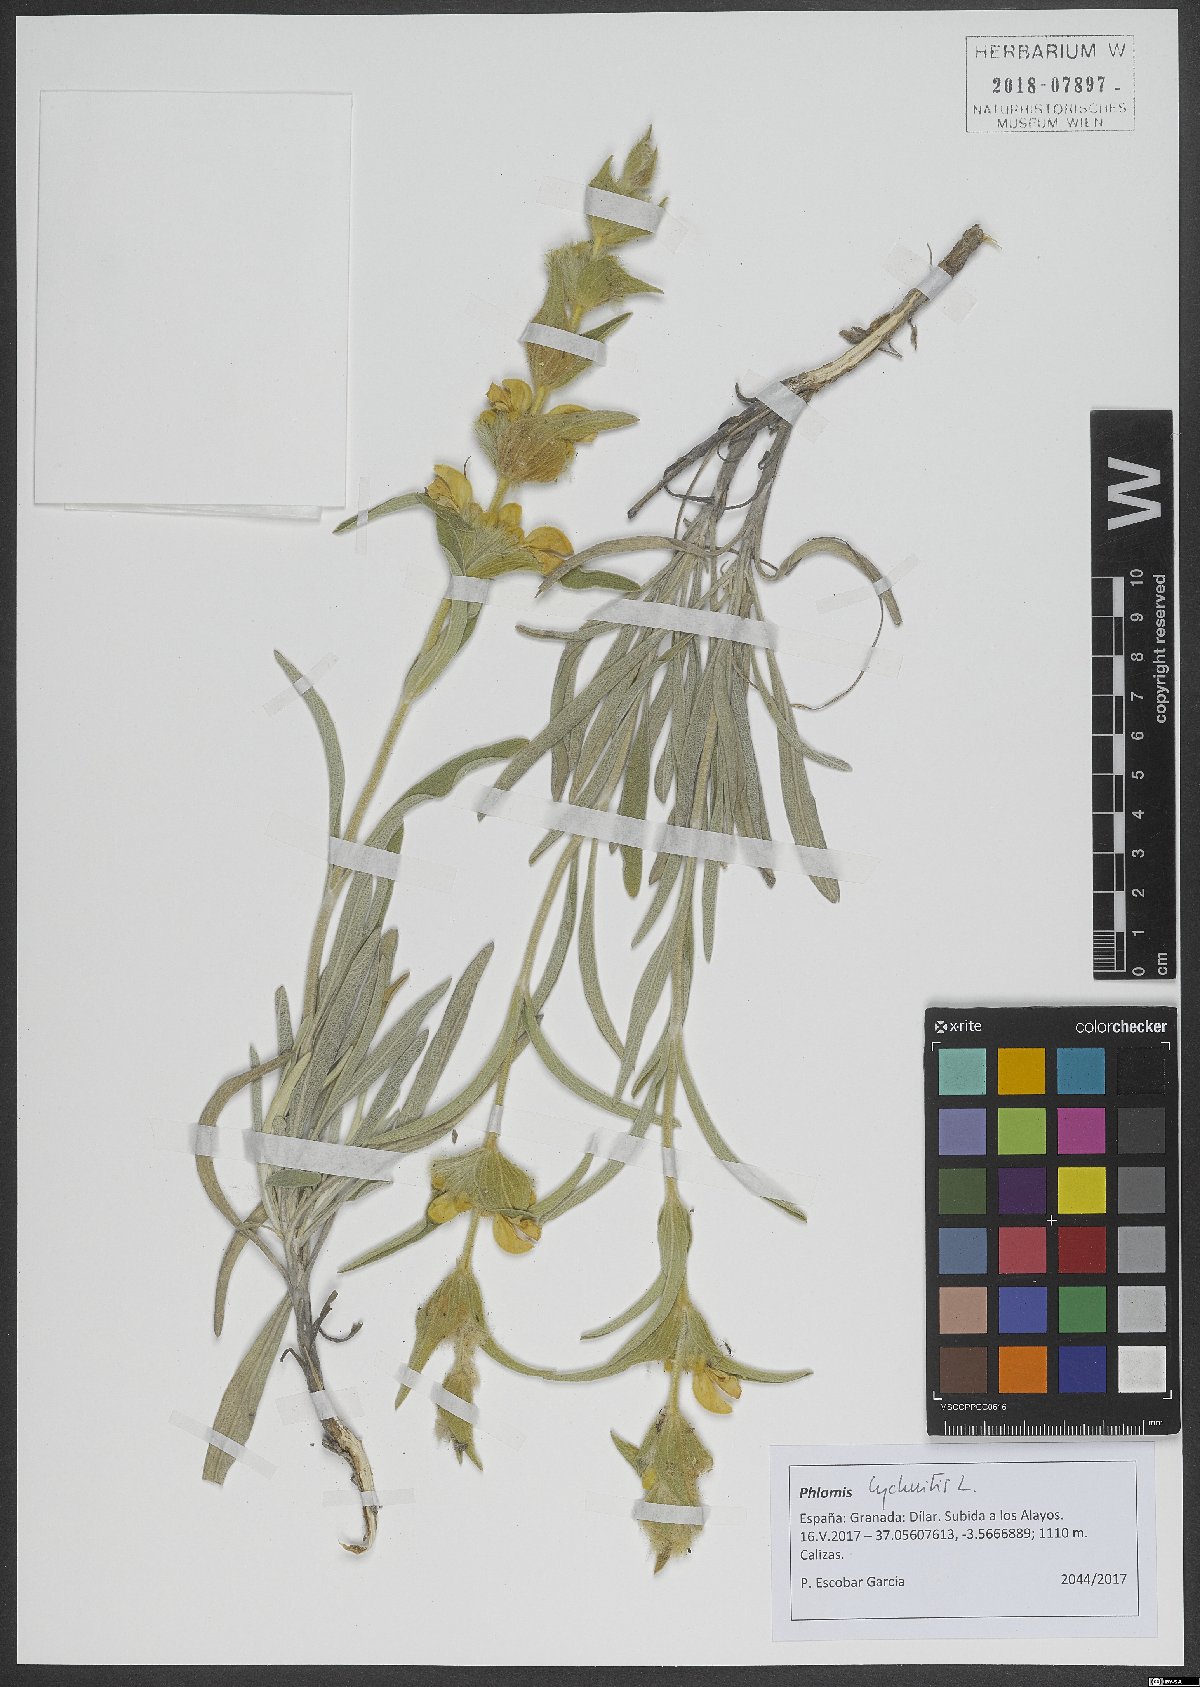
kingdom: Plantae
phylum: Tracheophyta
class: Magnoliopsida
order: Lamiales
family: Lamiaceae
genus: Phlomis
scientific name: Phlomis lychnitis
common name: Lampwickplant
